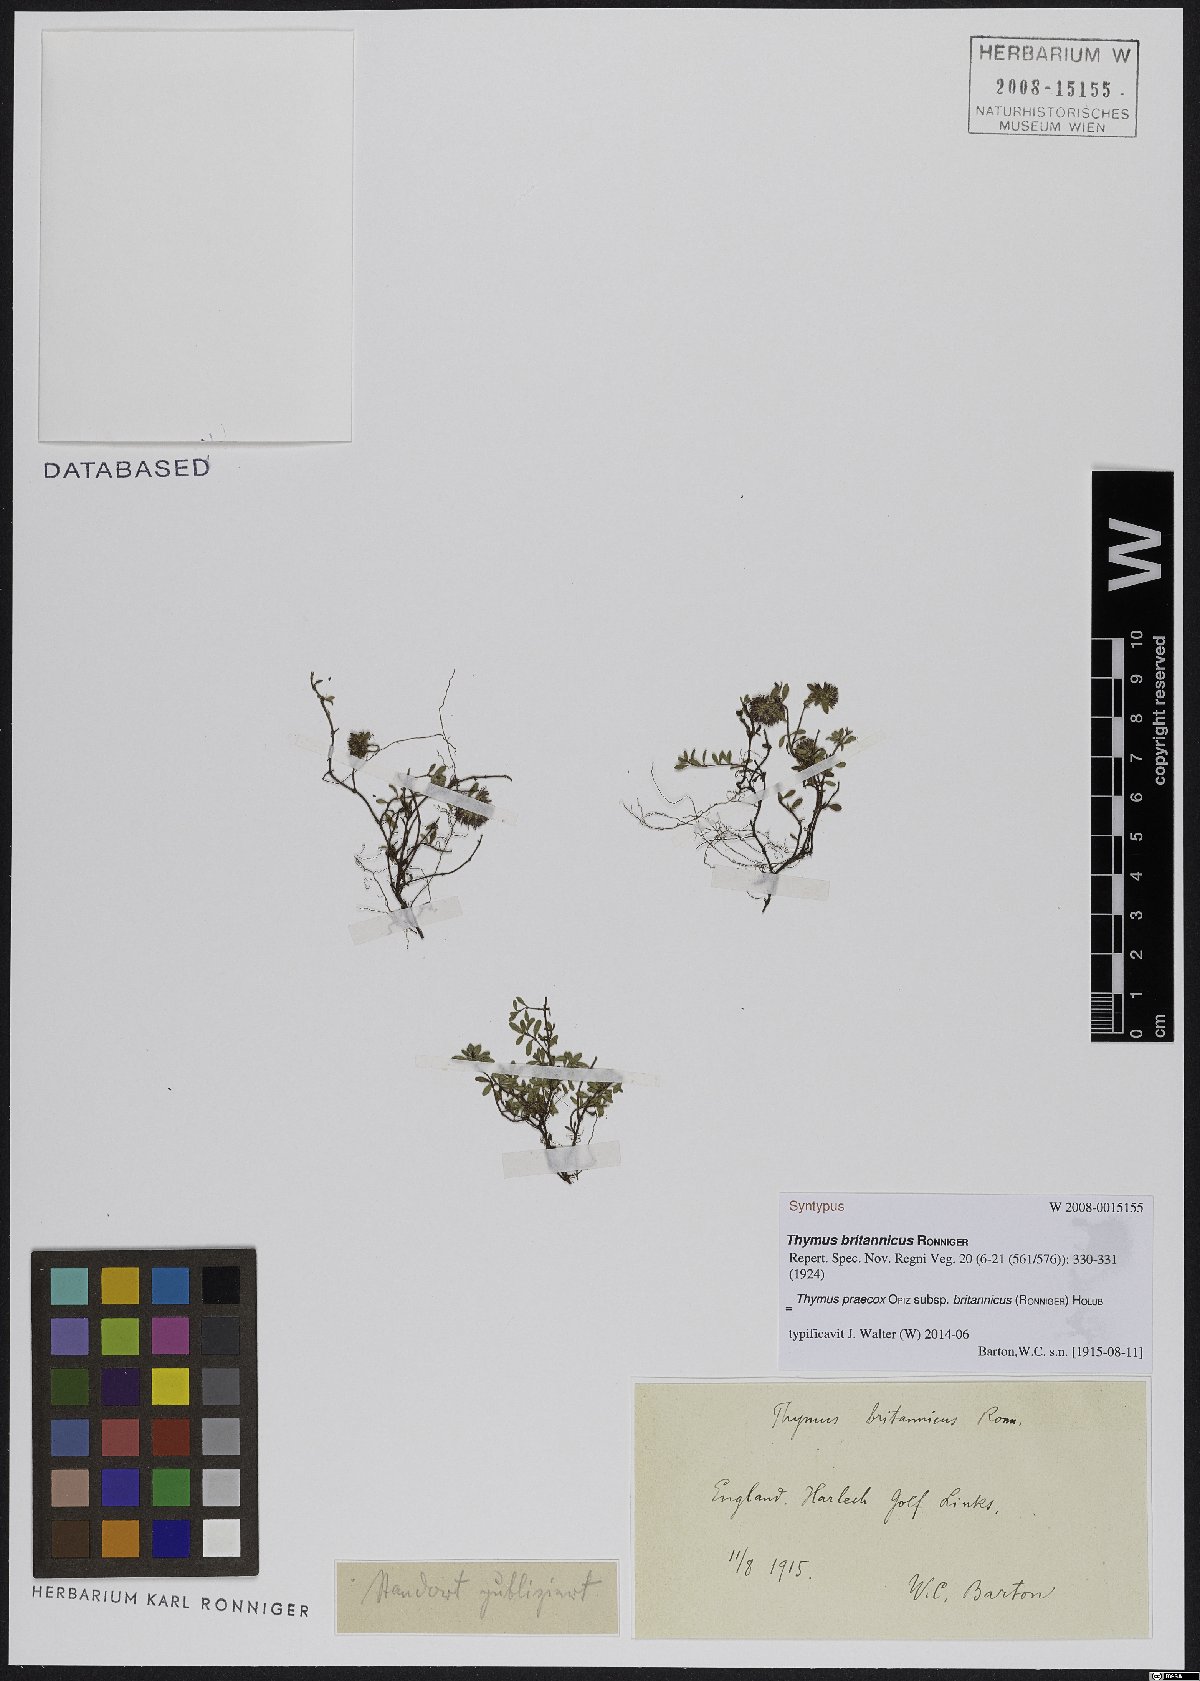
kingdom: Plantae
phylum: Tracheophyta
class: Magnoliopsida
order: Lamiales
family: Lamiaceae
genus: Thymus
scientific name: Thymus praecox
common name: Wild thyme
